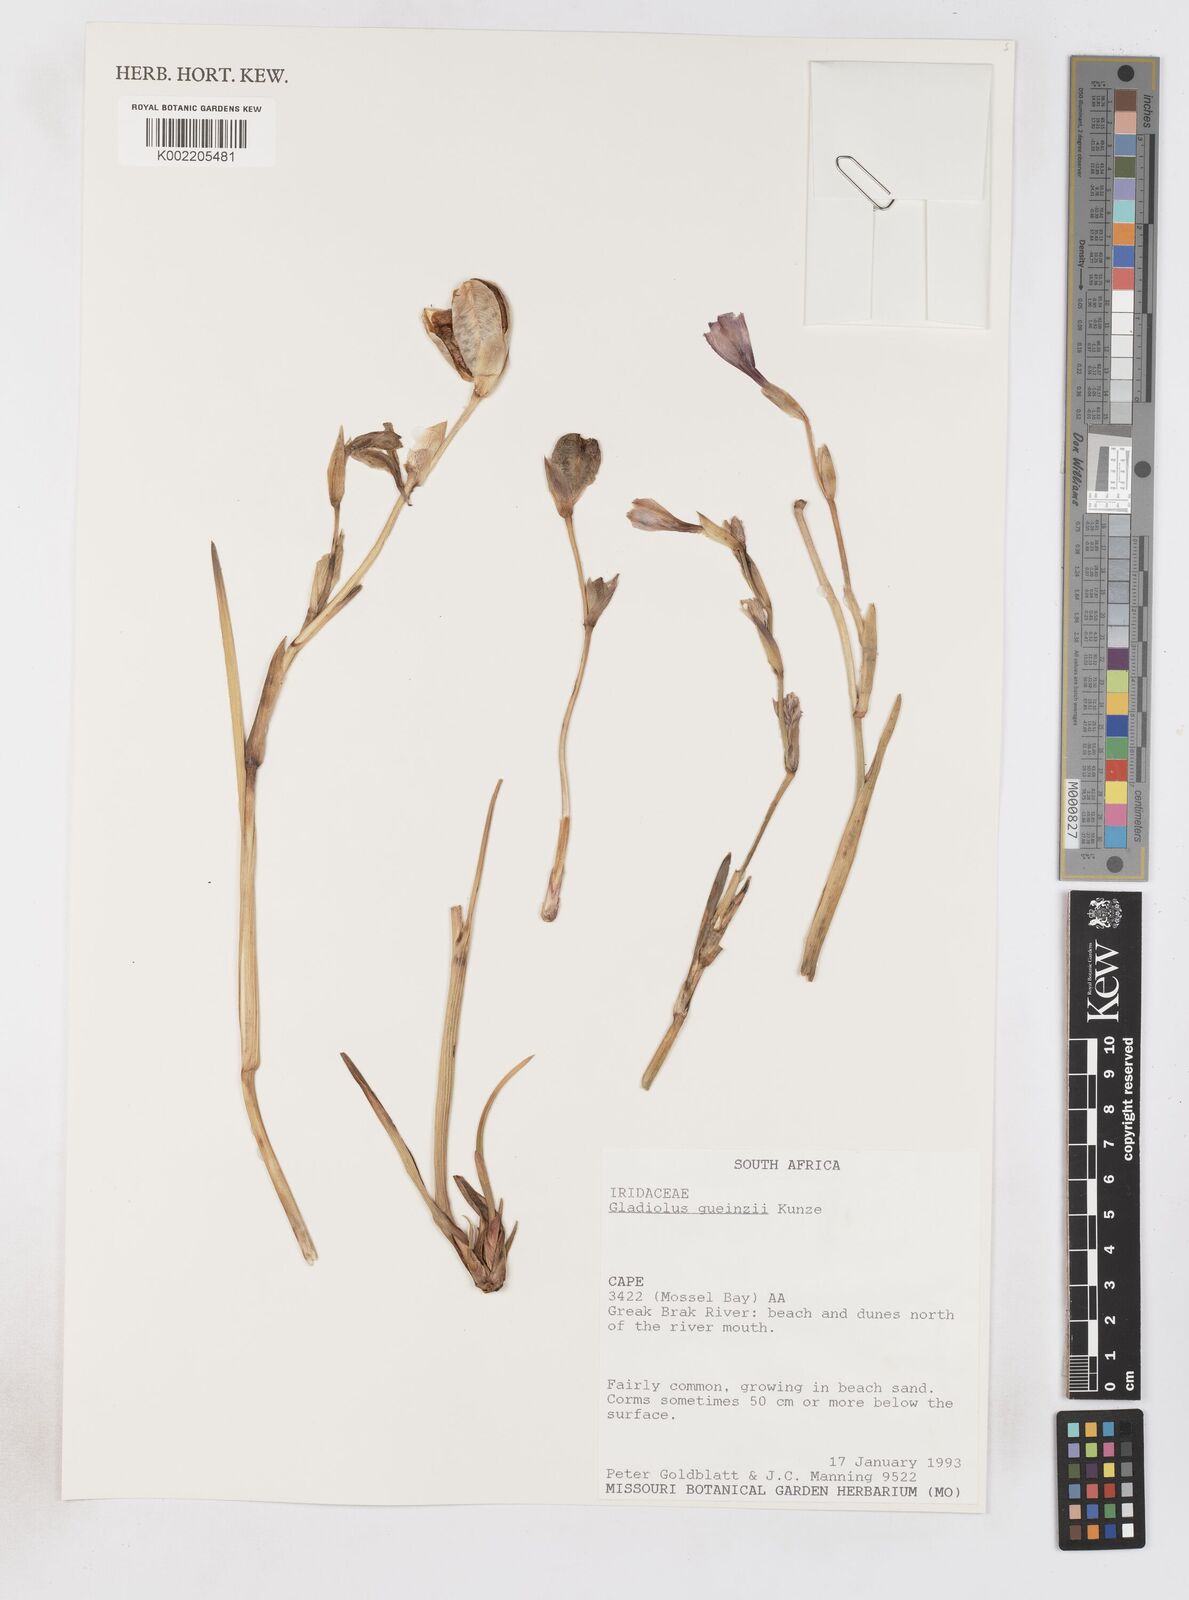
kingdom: Plantae
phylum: Tracheophyta
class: Liliopsida
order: Asparagales
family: Iridaceae
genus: Gladiolus
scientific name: Gladiolus gueinzii
